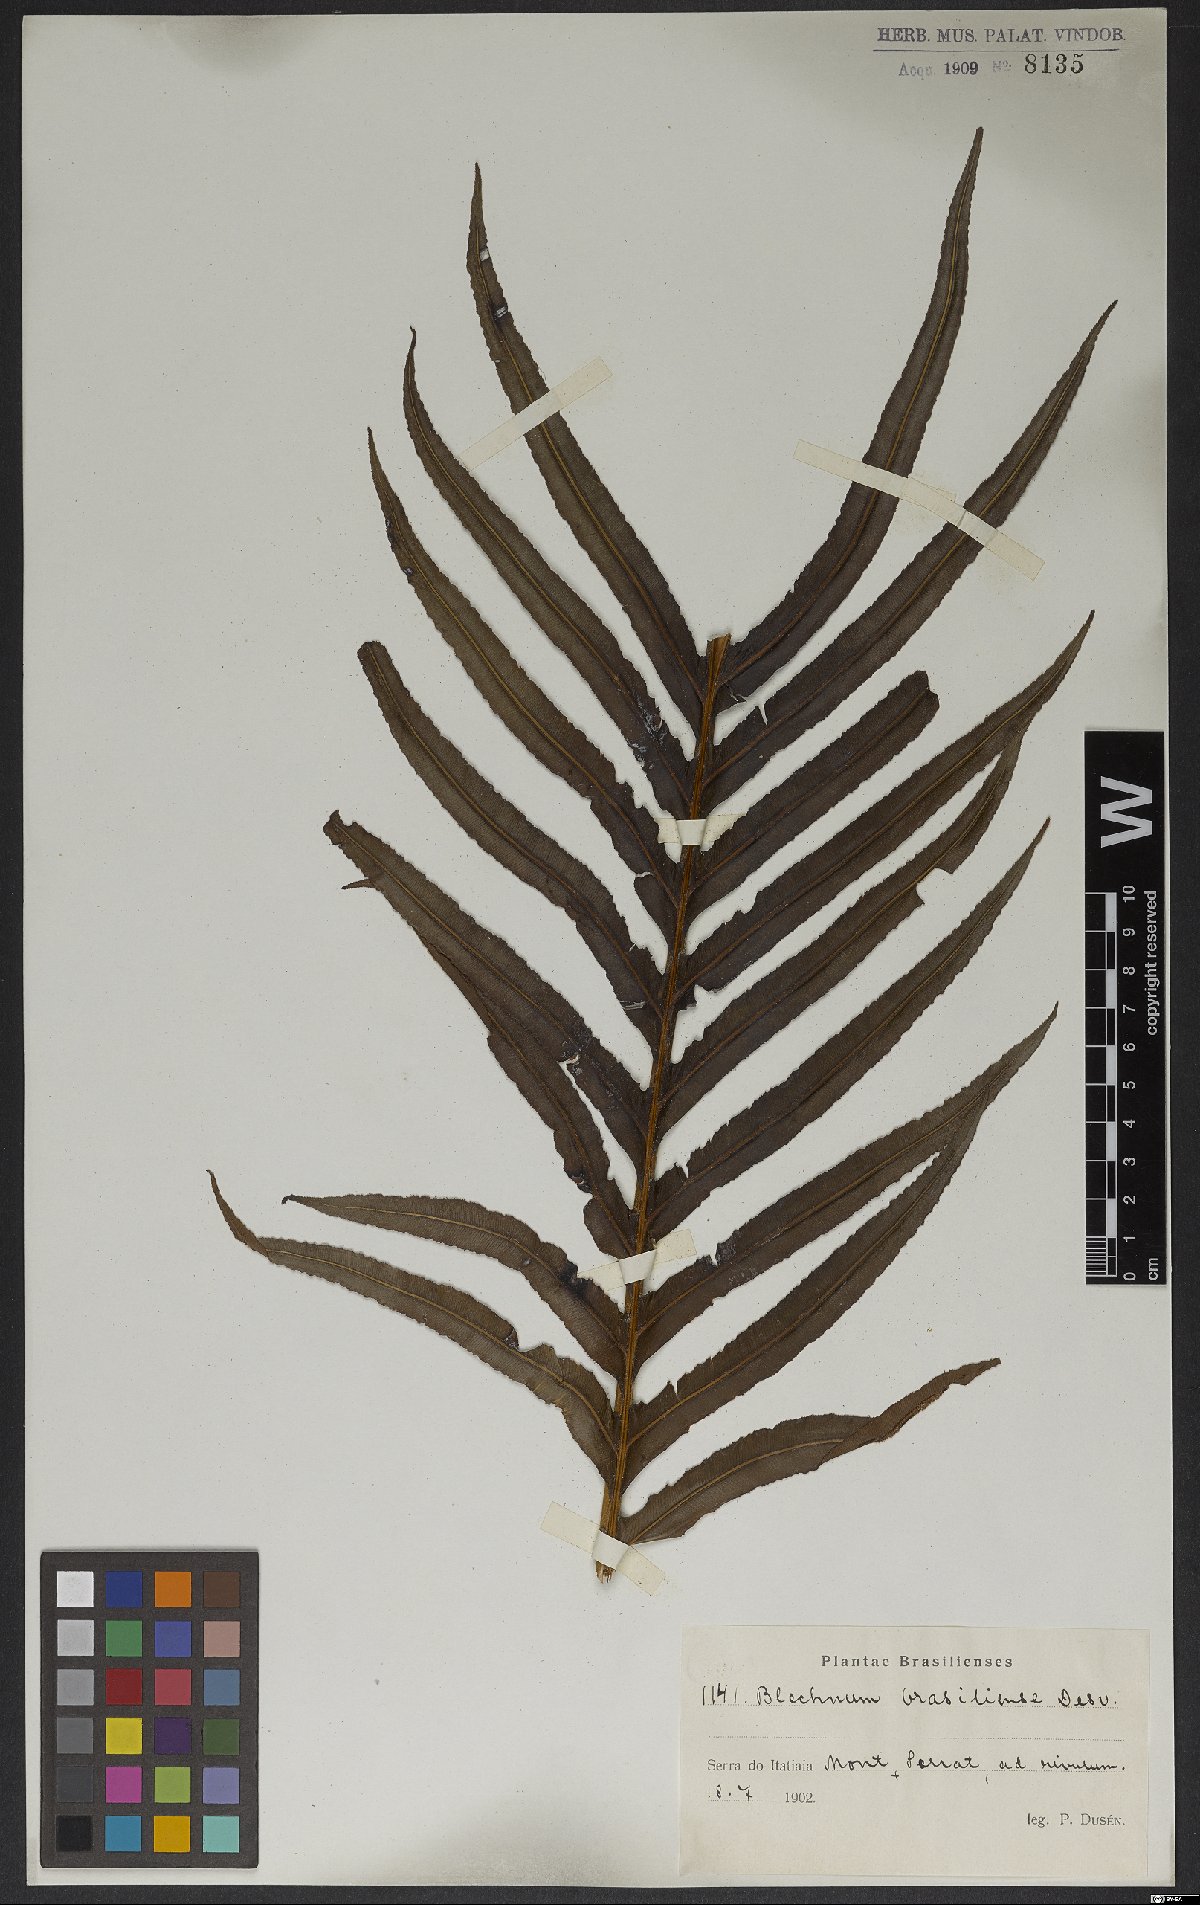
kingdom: Plantae
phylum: Tracheophyta
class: Polypodiopsida
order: Polypodiales
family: Blechnaceae
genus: Neoblechnum
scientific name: Neoblechnum brasiliense
